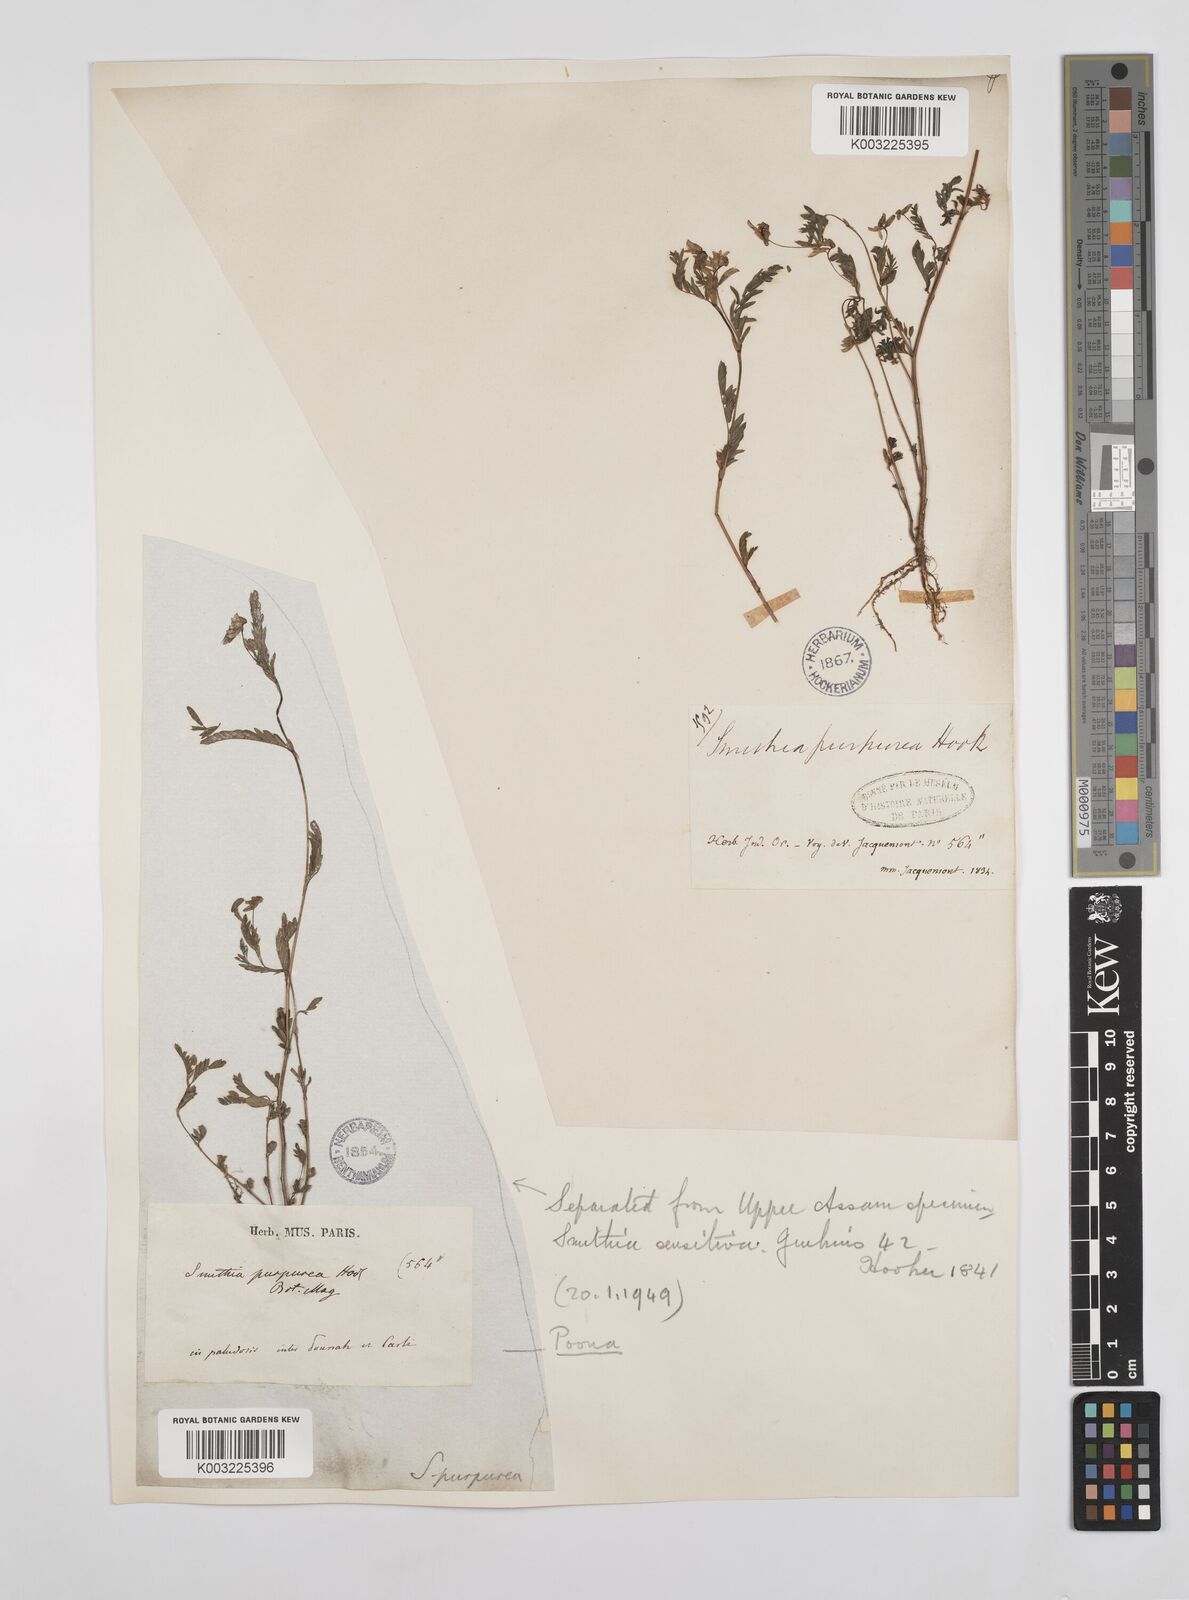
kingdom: Plantae
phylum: Tracheophyta
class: Magnoliopsida
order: Fabales
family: Fabaceae
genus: Smithia
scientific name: Smithia purpurea
